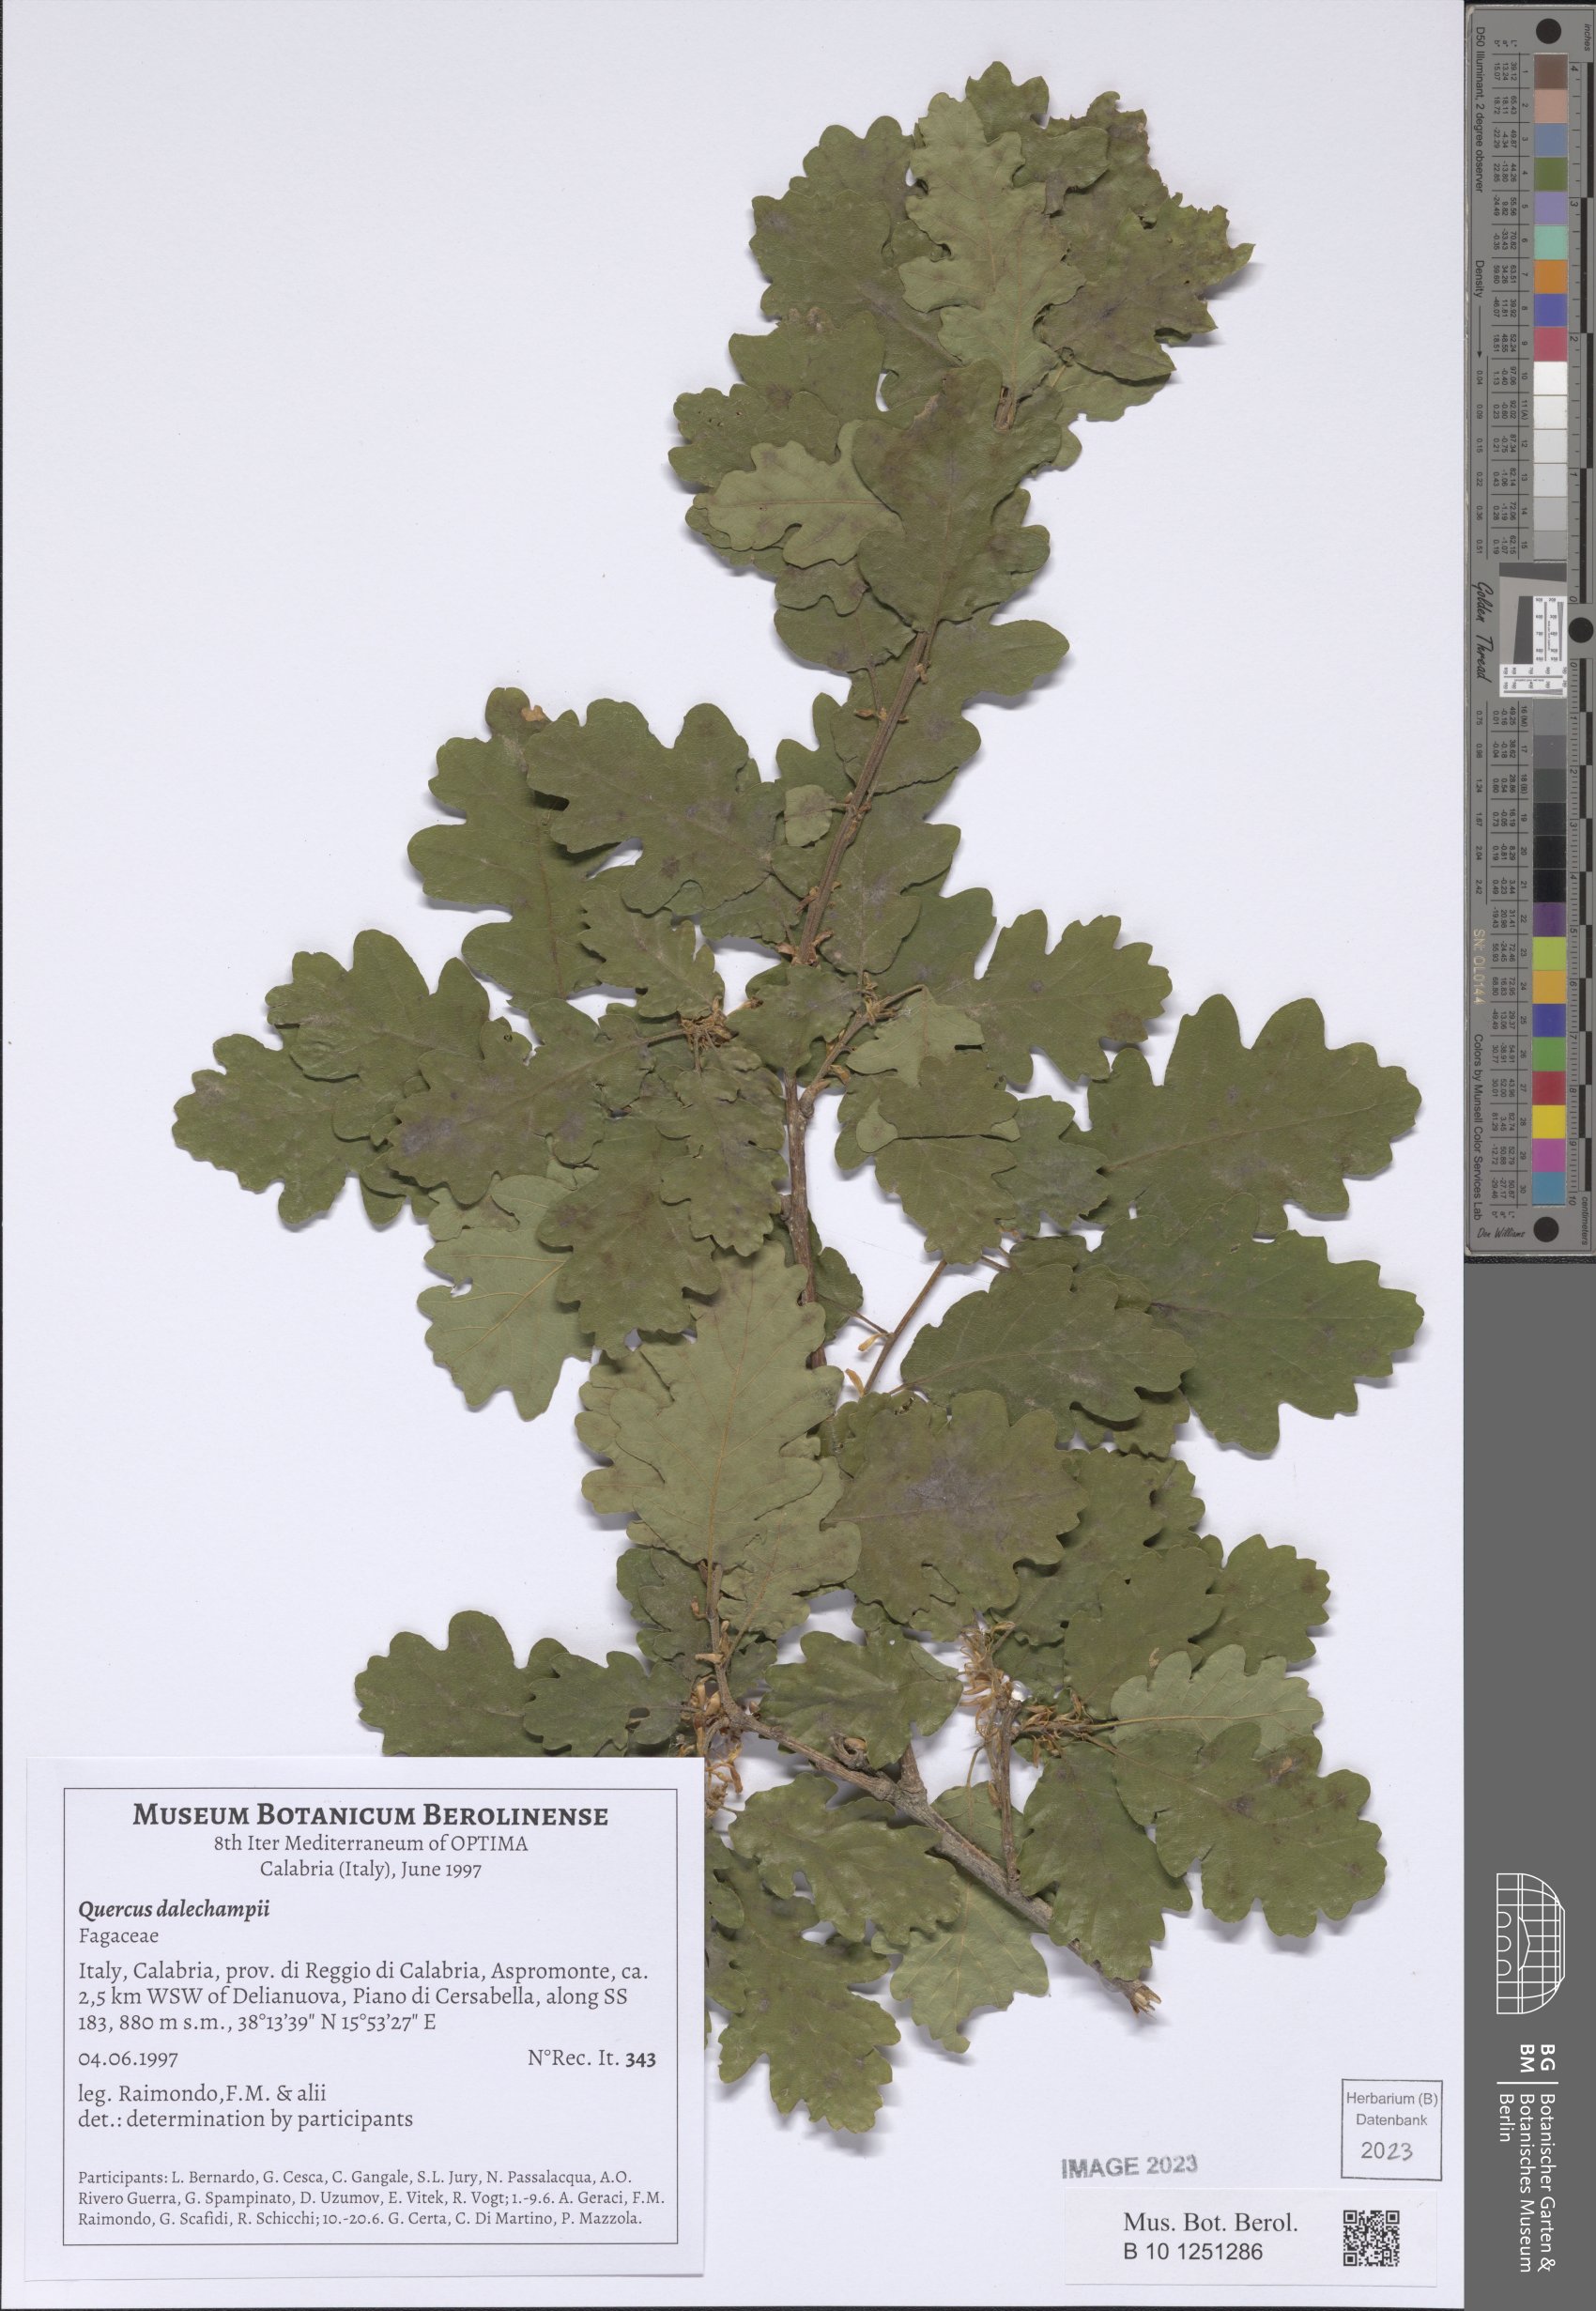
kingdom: Plantae
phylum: Tracheophyta
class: Magnoliopsida
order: Fagales
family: Fagaceae
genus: Quercus
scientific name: Quercus dalechampii
